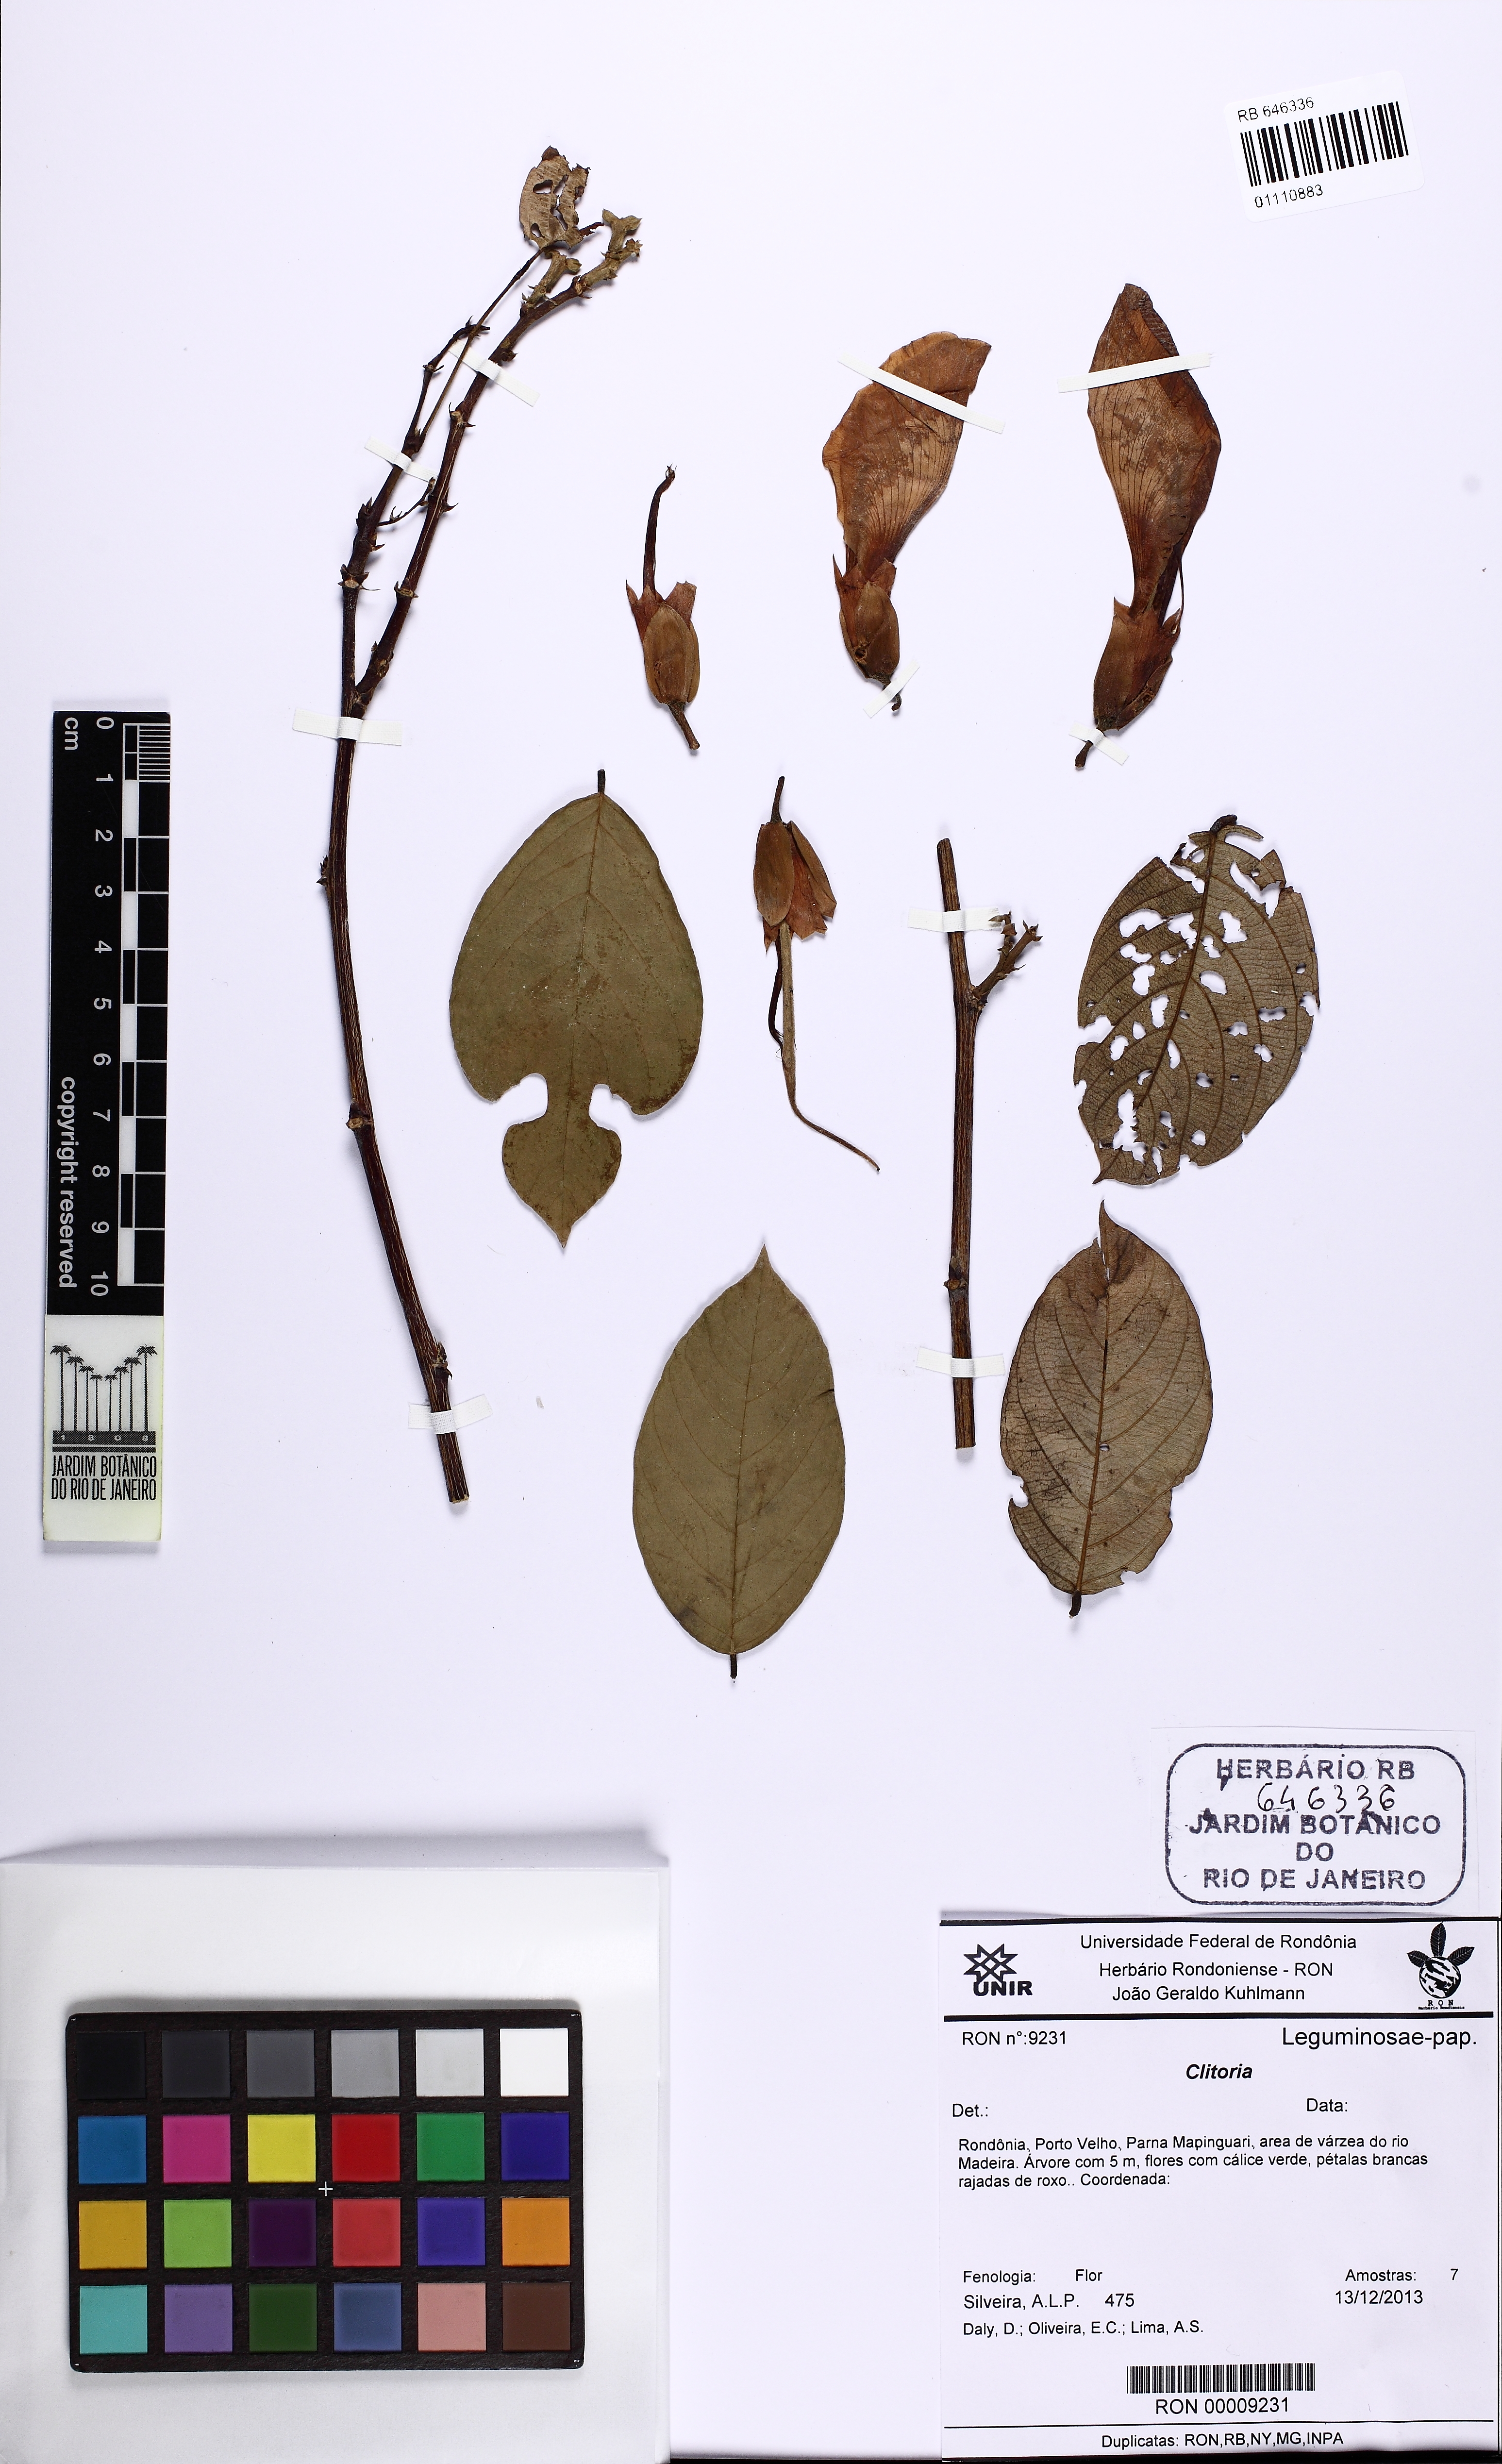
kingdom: Plantae
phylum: Tracheophyta
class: Magnoliopsida
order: Fabales
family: Fabaceae
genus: Clitoria
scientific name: Clitoria
